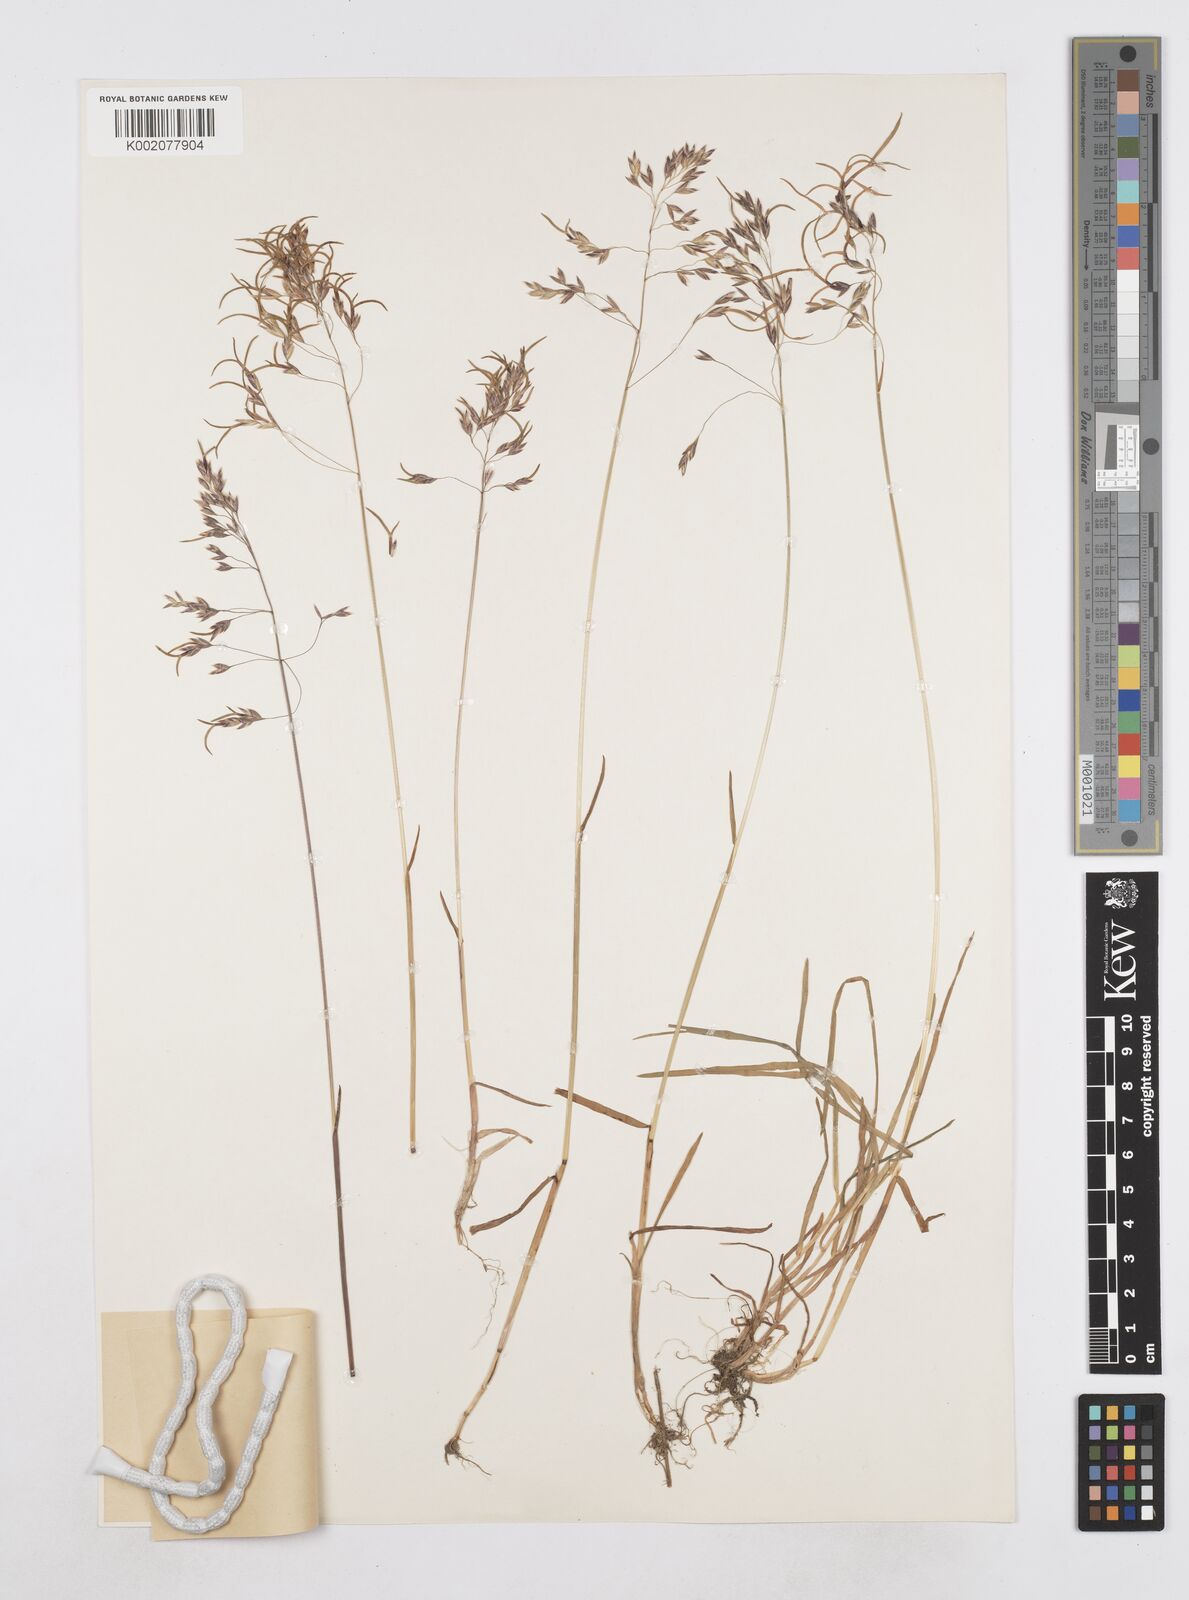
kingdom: Plantae
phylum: Tracheophyta
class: Liliopsida
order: Poales
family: Poaceae
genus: Poa
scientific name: Poa stenantha
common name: Narrow-flowered bluegrass
